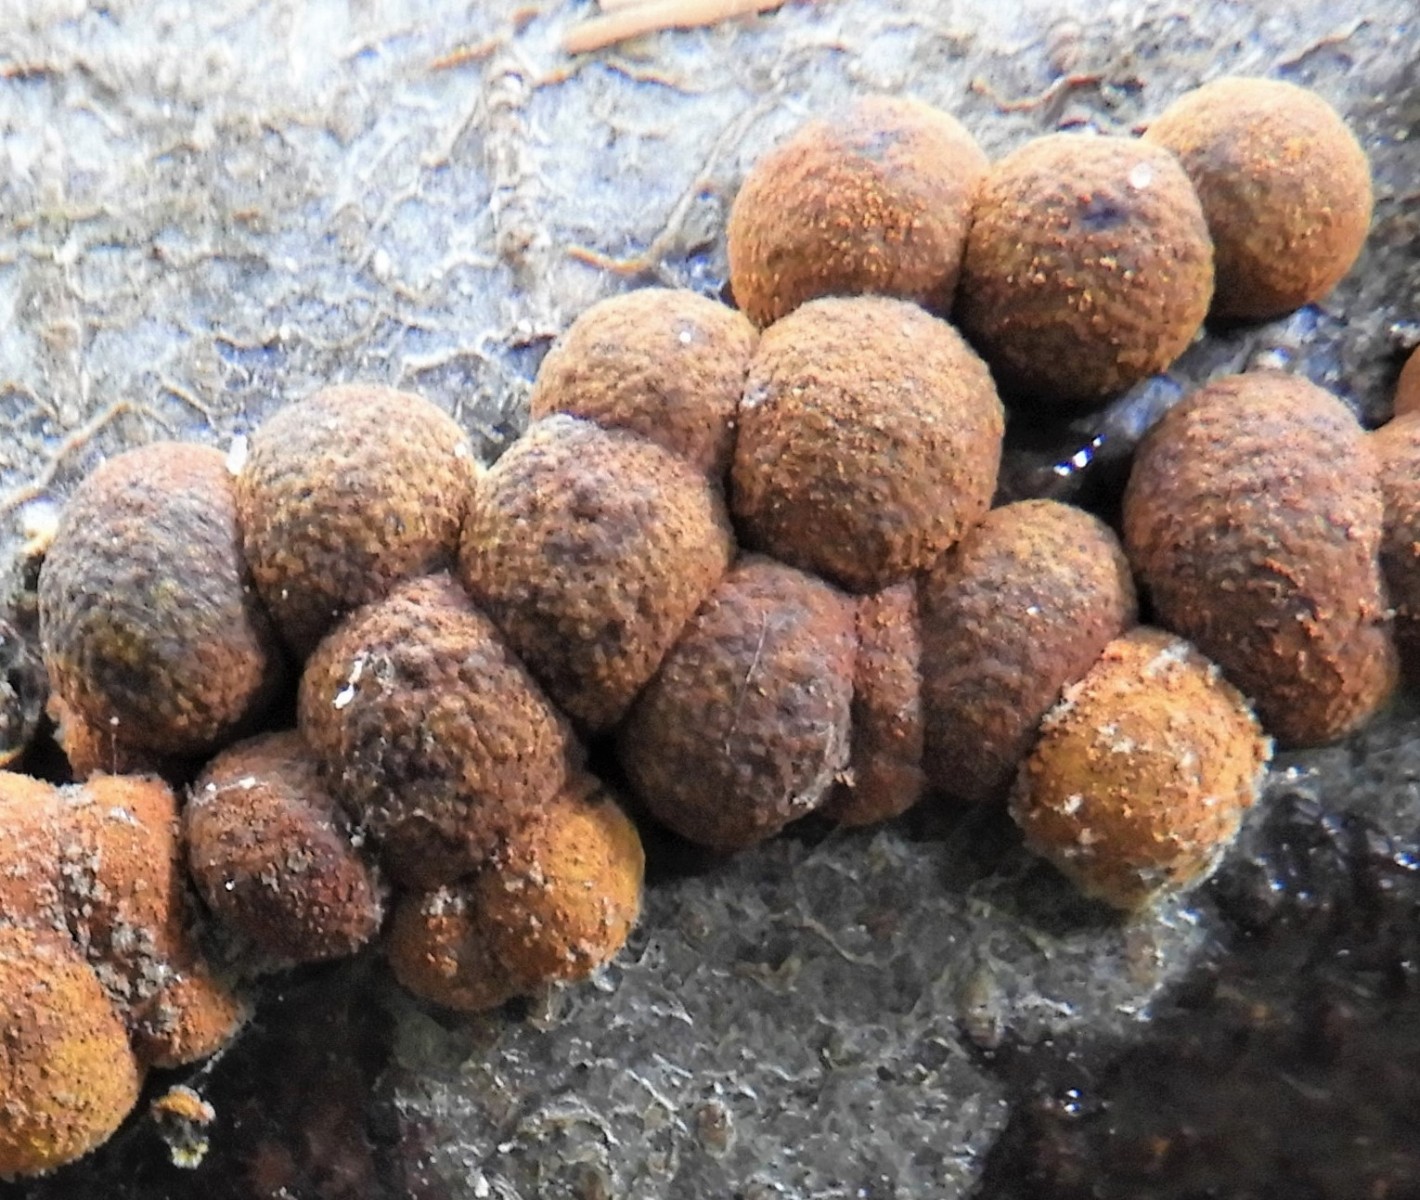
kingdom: Fungi
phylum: Ascomycota
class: Sordariomycetes
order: Xylariales
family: Hypoxylaceae
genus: Hypoxylon
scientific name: Hypoxylon fragiforme
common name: kuljordbær
